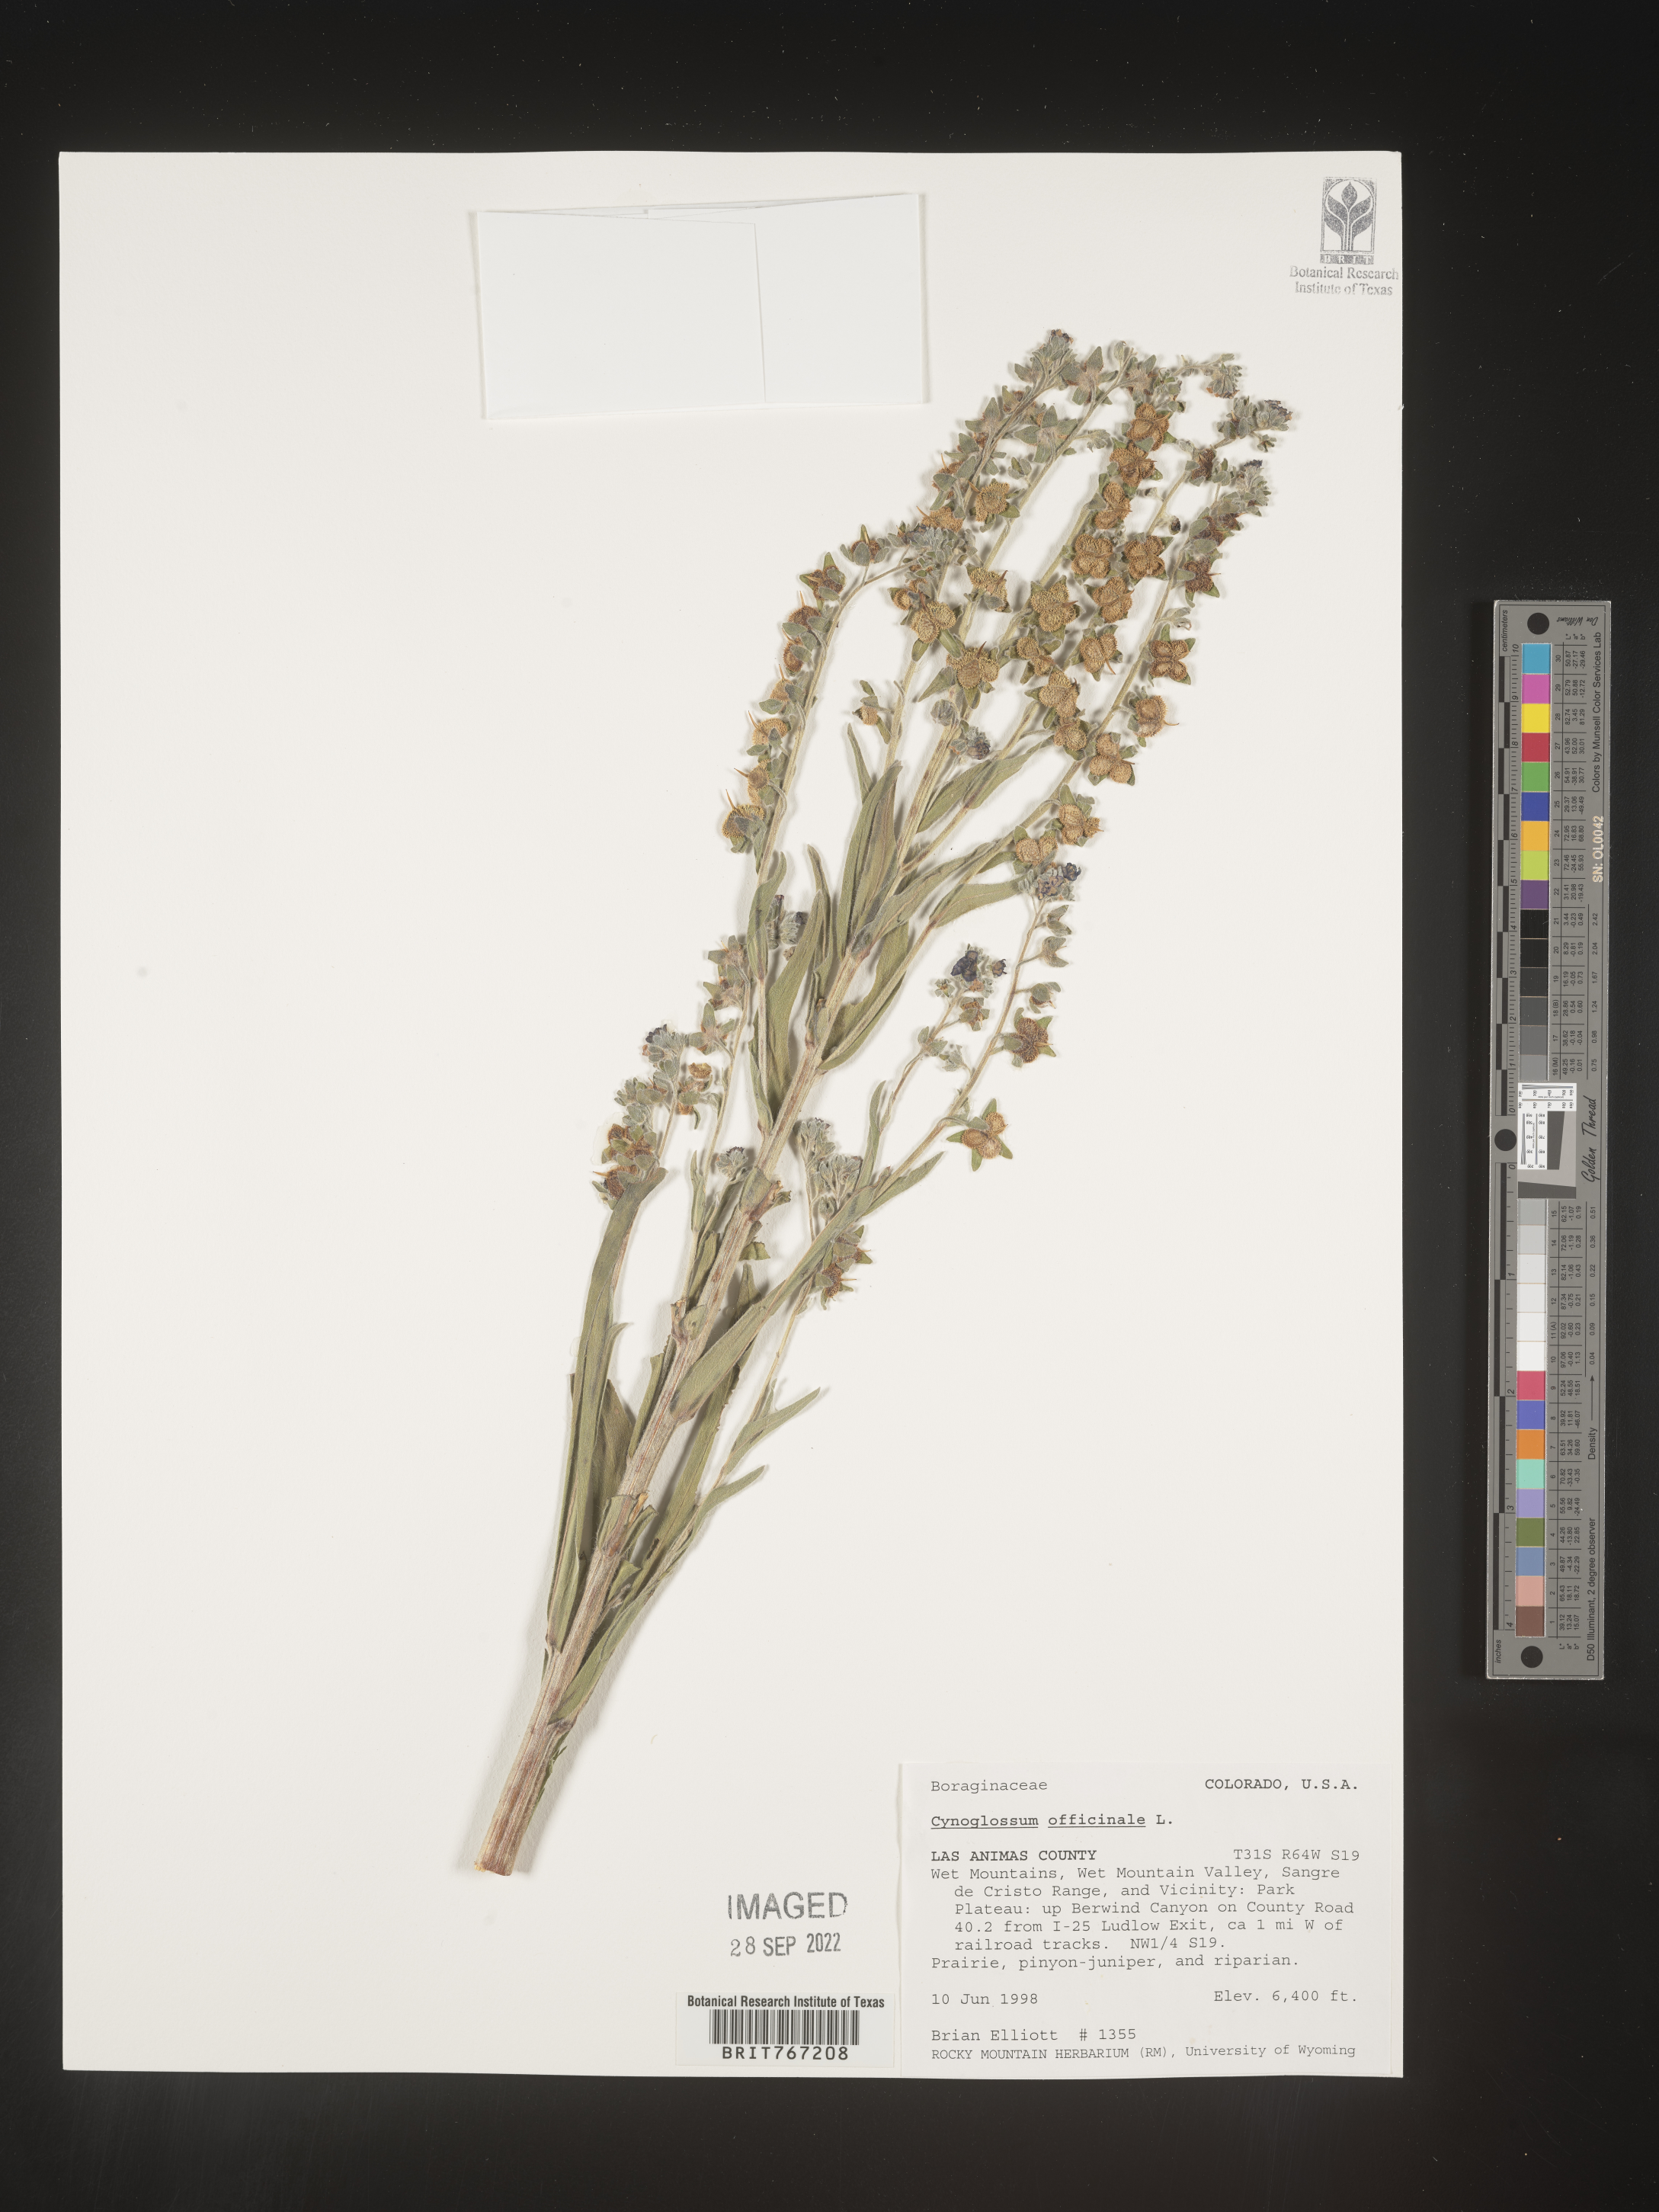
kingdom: Plantae
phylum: Tracheophyta
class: Magnoliopsida
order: Boraginales
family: Boraginaceae
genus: Cynoglossum
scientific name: Cynoglossum officinale
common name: Hound's-tongue
